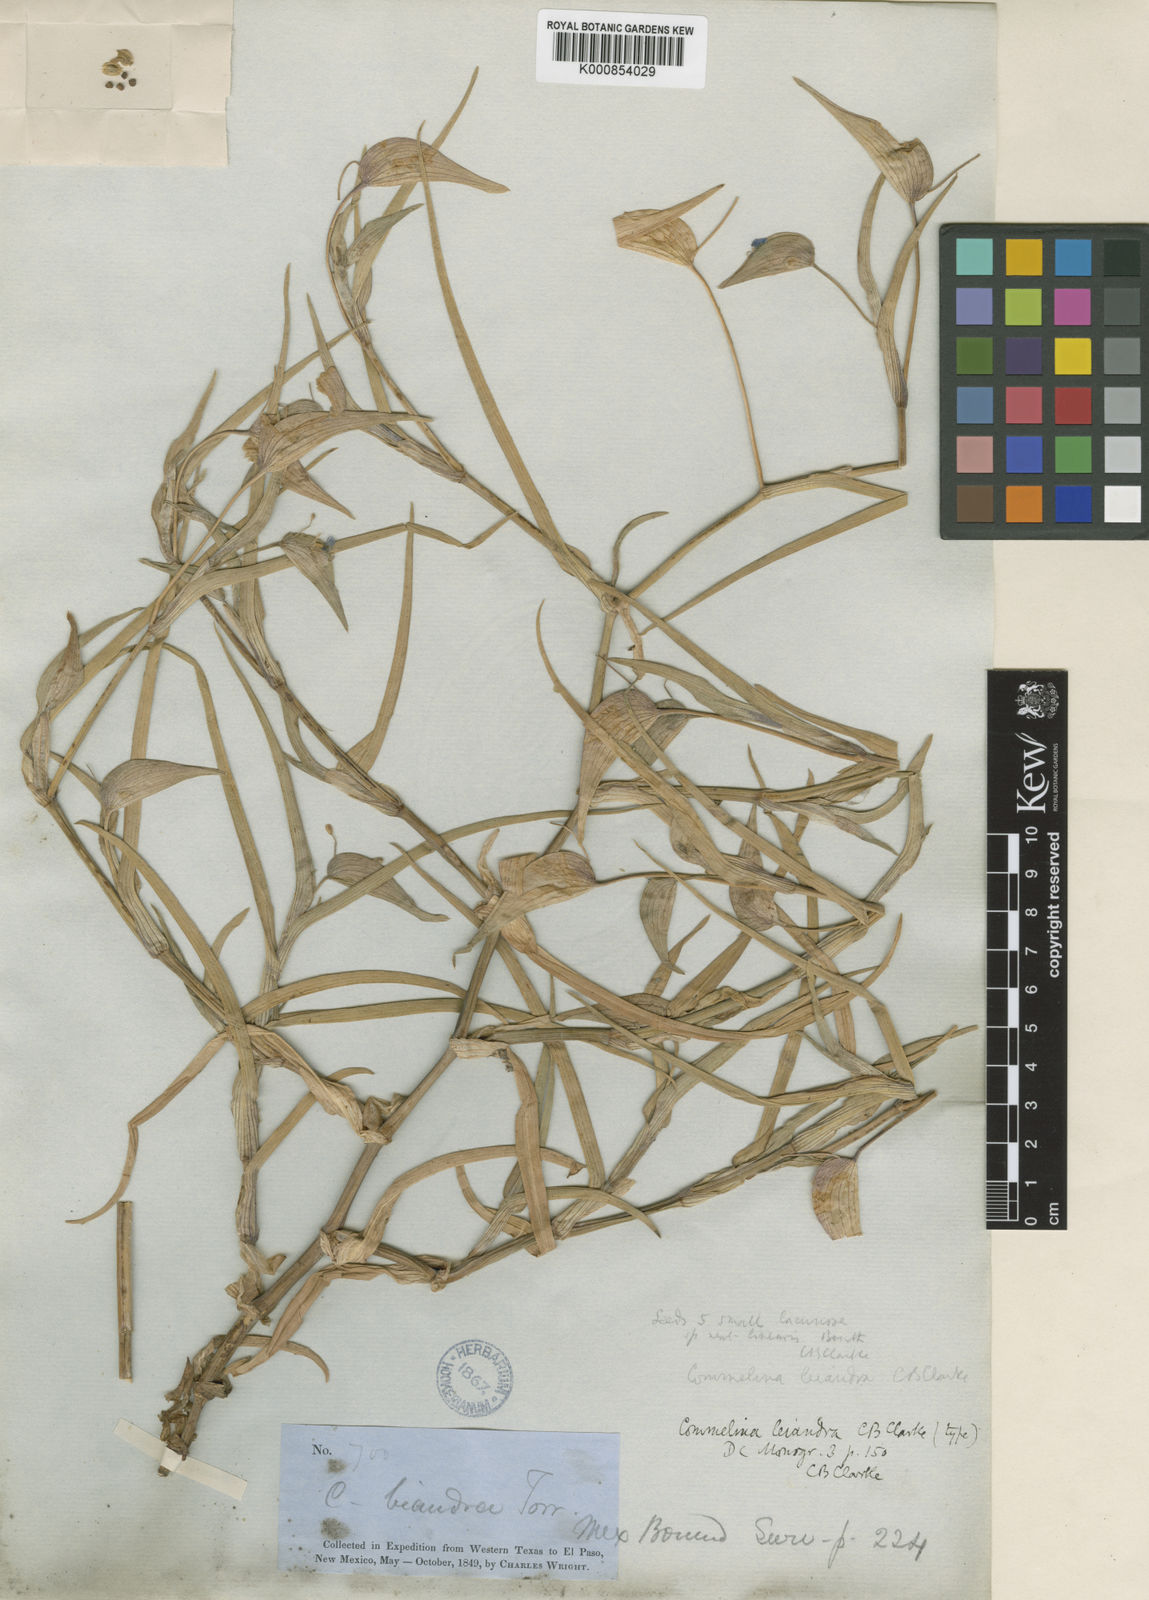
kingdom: Plantae
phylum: Tracheophyta
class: Liliopsida
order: Commelinales
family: Commelinaceae
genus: Commelina
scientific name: Commelina
